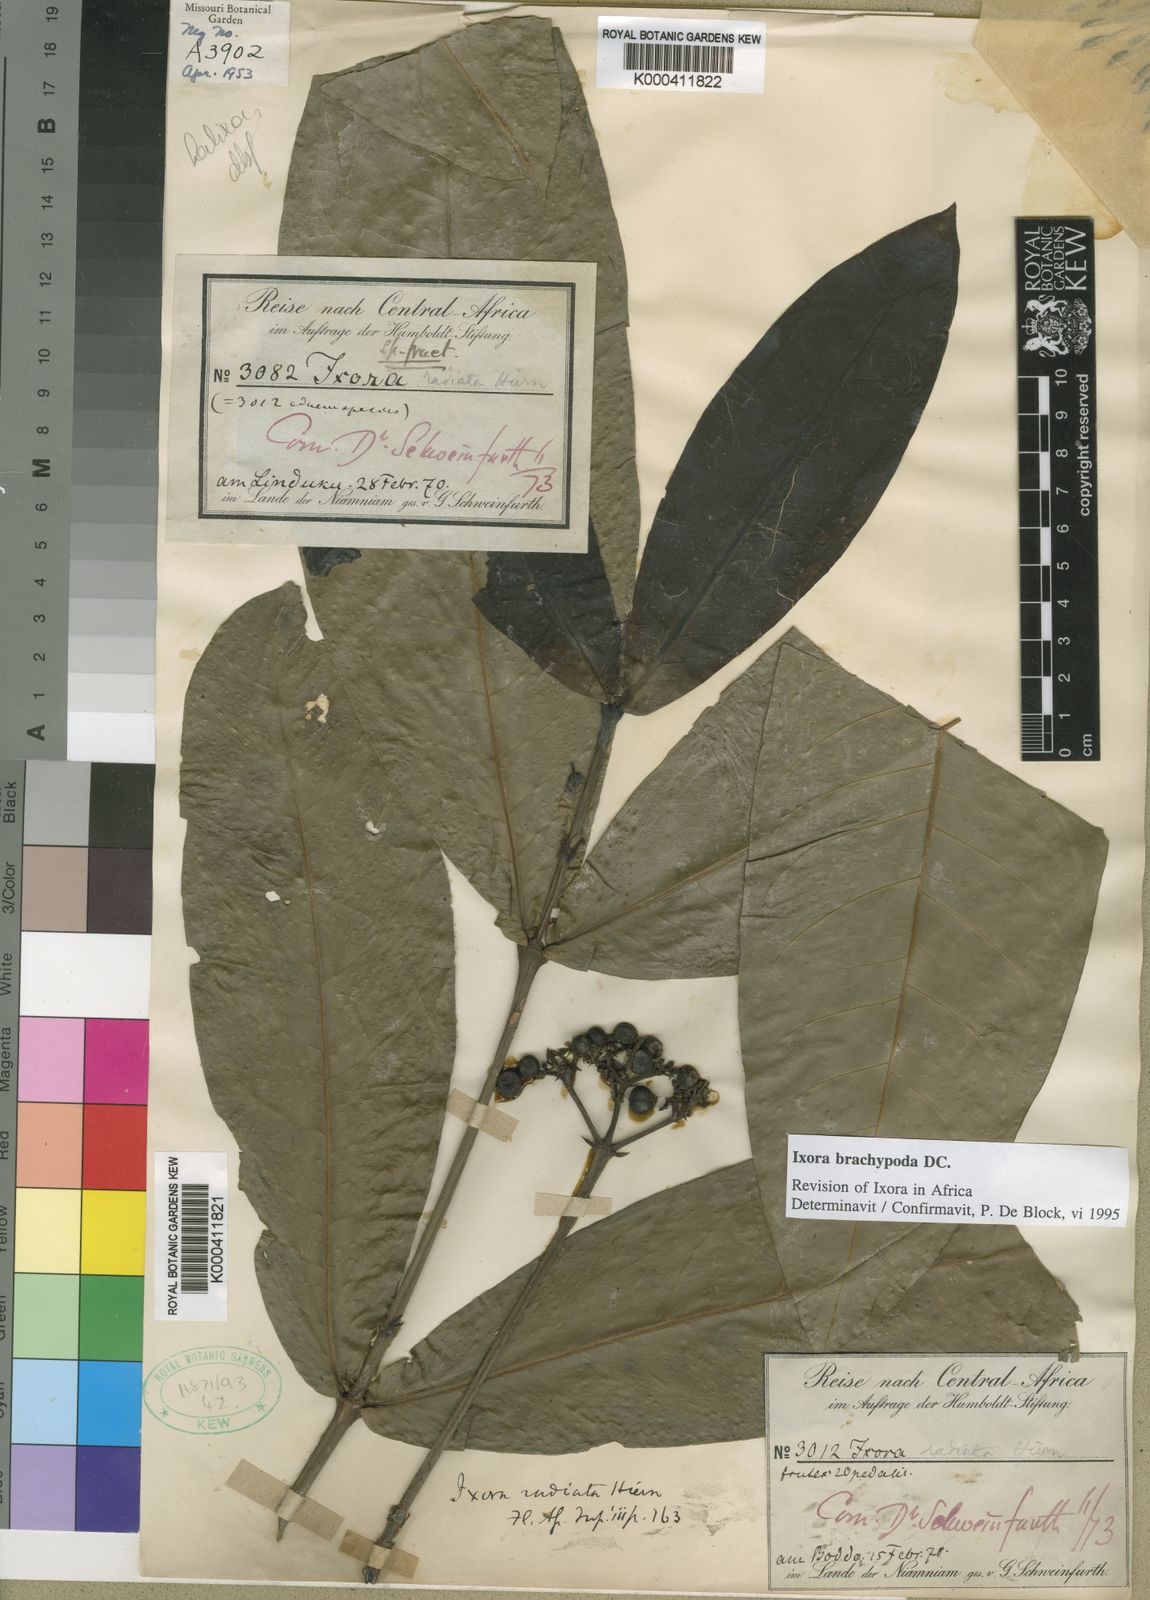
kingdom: Plantae
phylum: Tracheophyta
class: Magnoliopsida
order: Gentianales
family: Rubiaceae
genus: Ixora
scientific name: Ixora brachypoda
